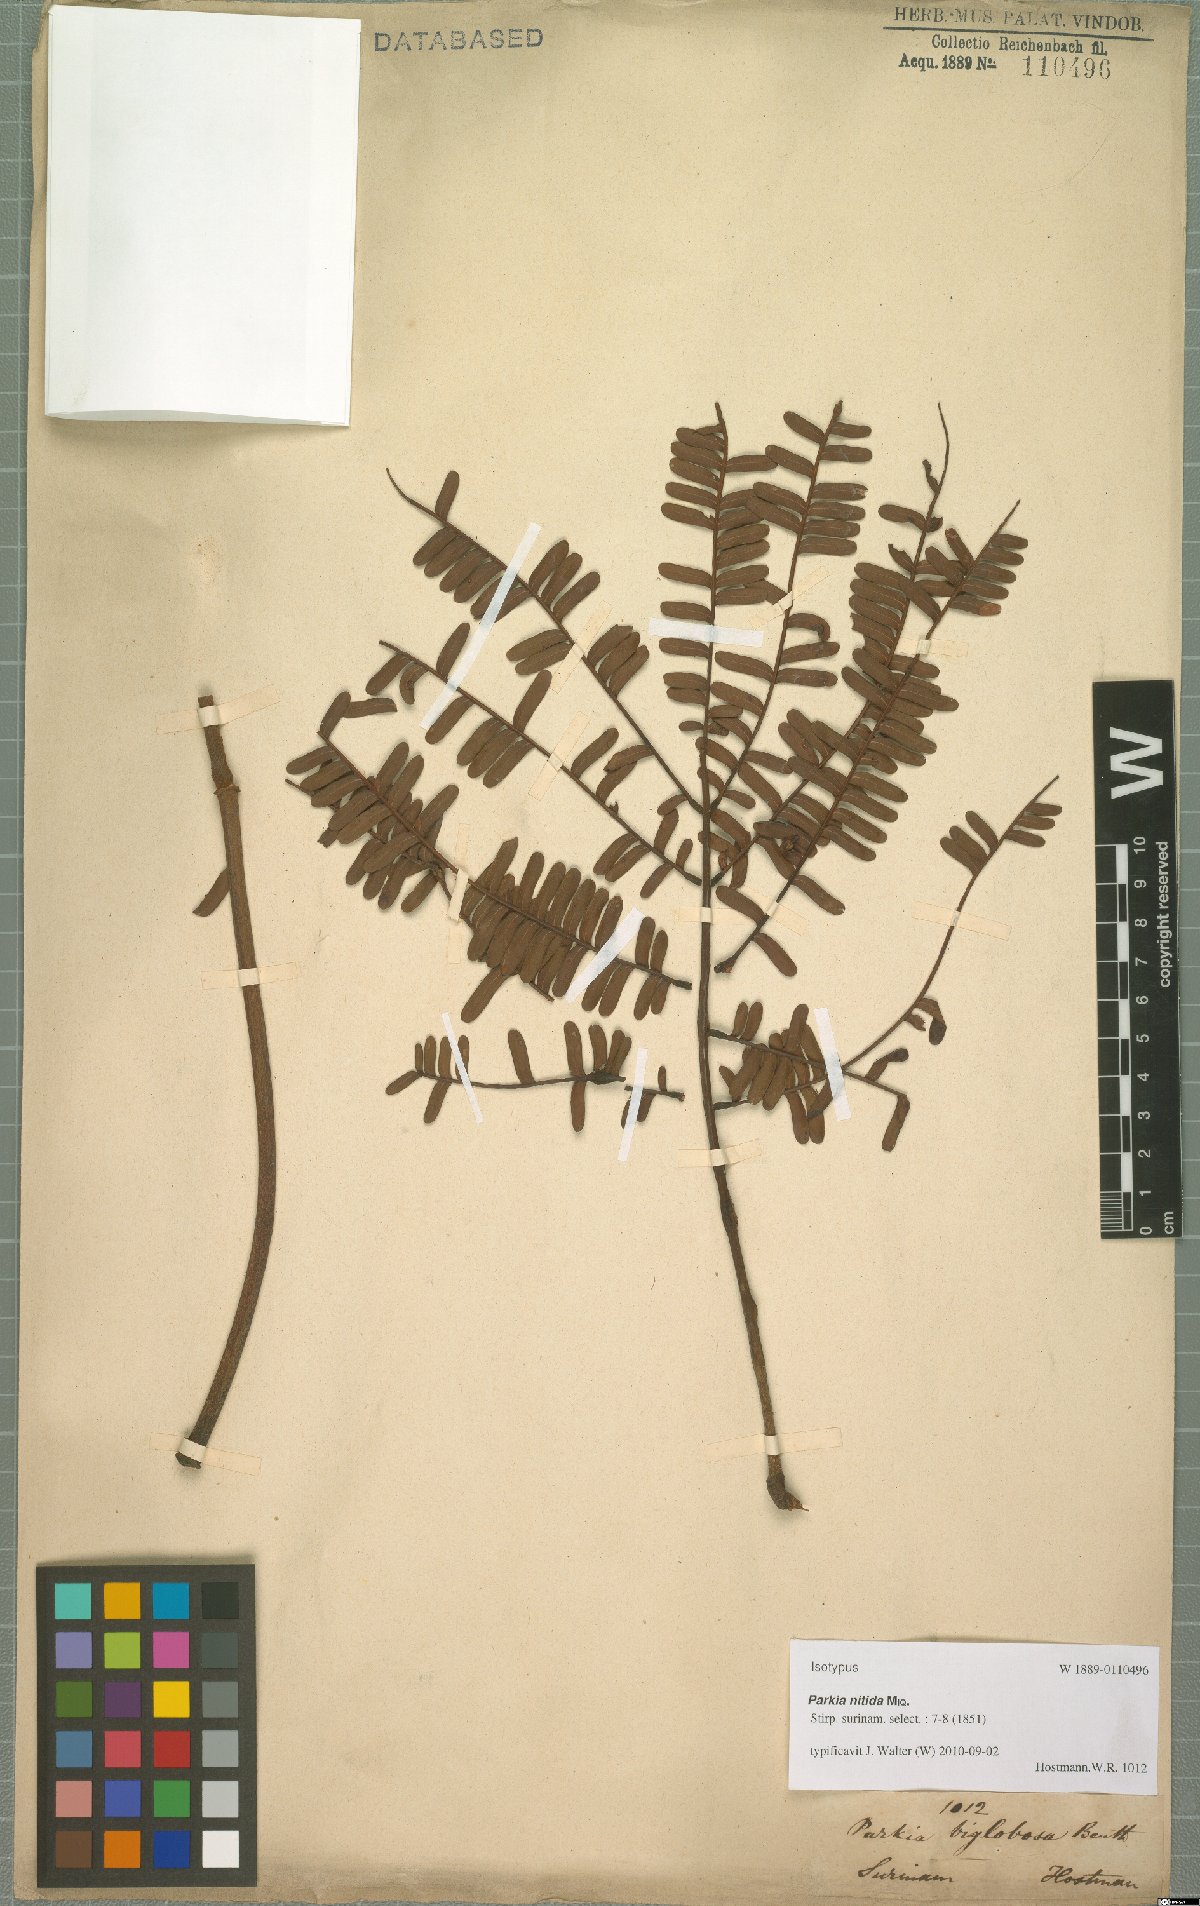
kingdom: Plantae
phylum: Tracheophyta
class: Magnoliopsida
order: Fabales
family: Fabaceae
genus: Parkia
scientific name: Parkia nitida
